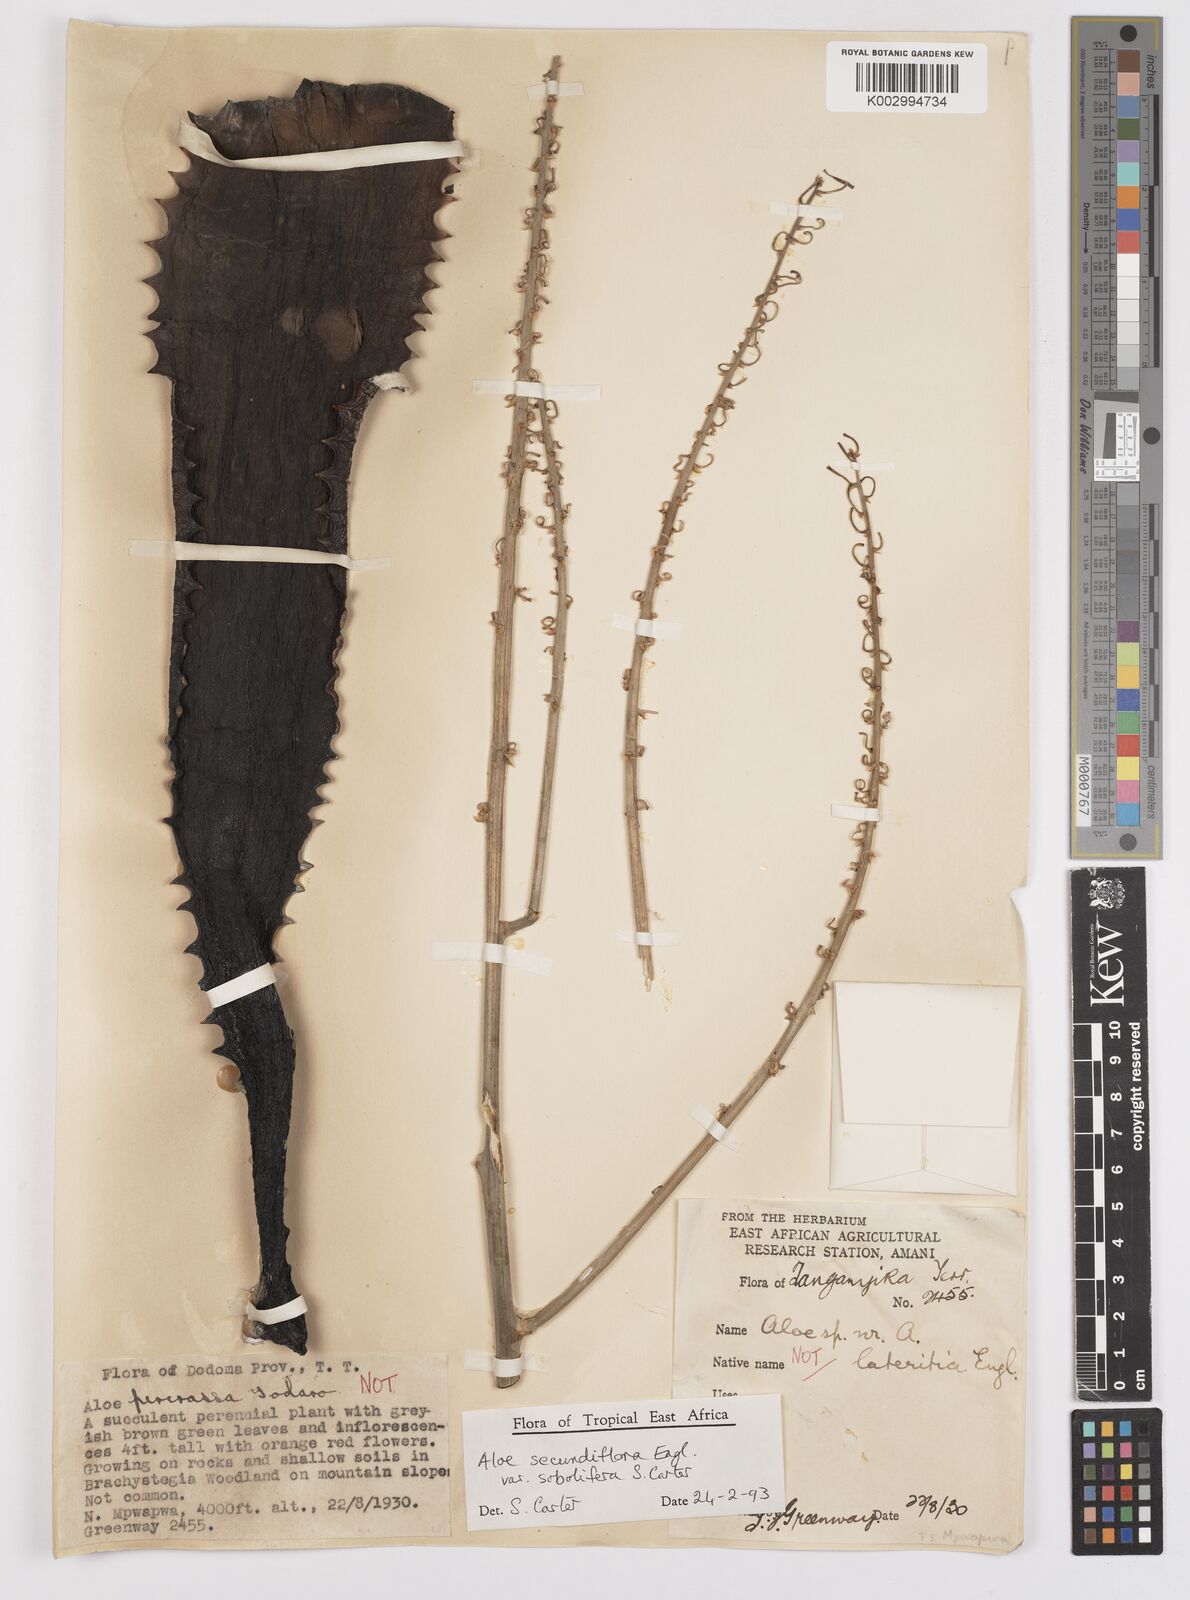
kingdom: Plantae
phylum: Tracheophyta
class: Liliopsida
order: Asparagales
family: Asphodelaceae
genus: Aloe
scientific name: Aloe sobolifera
